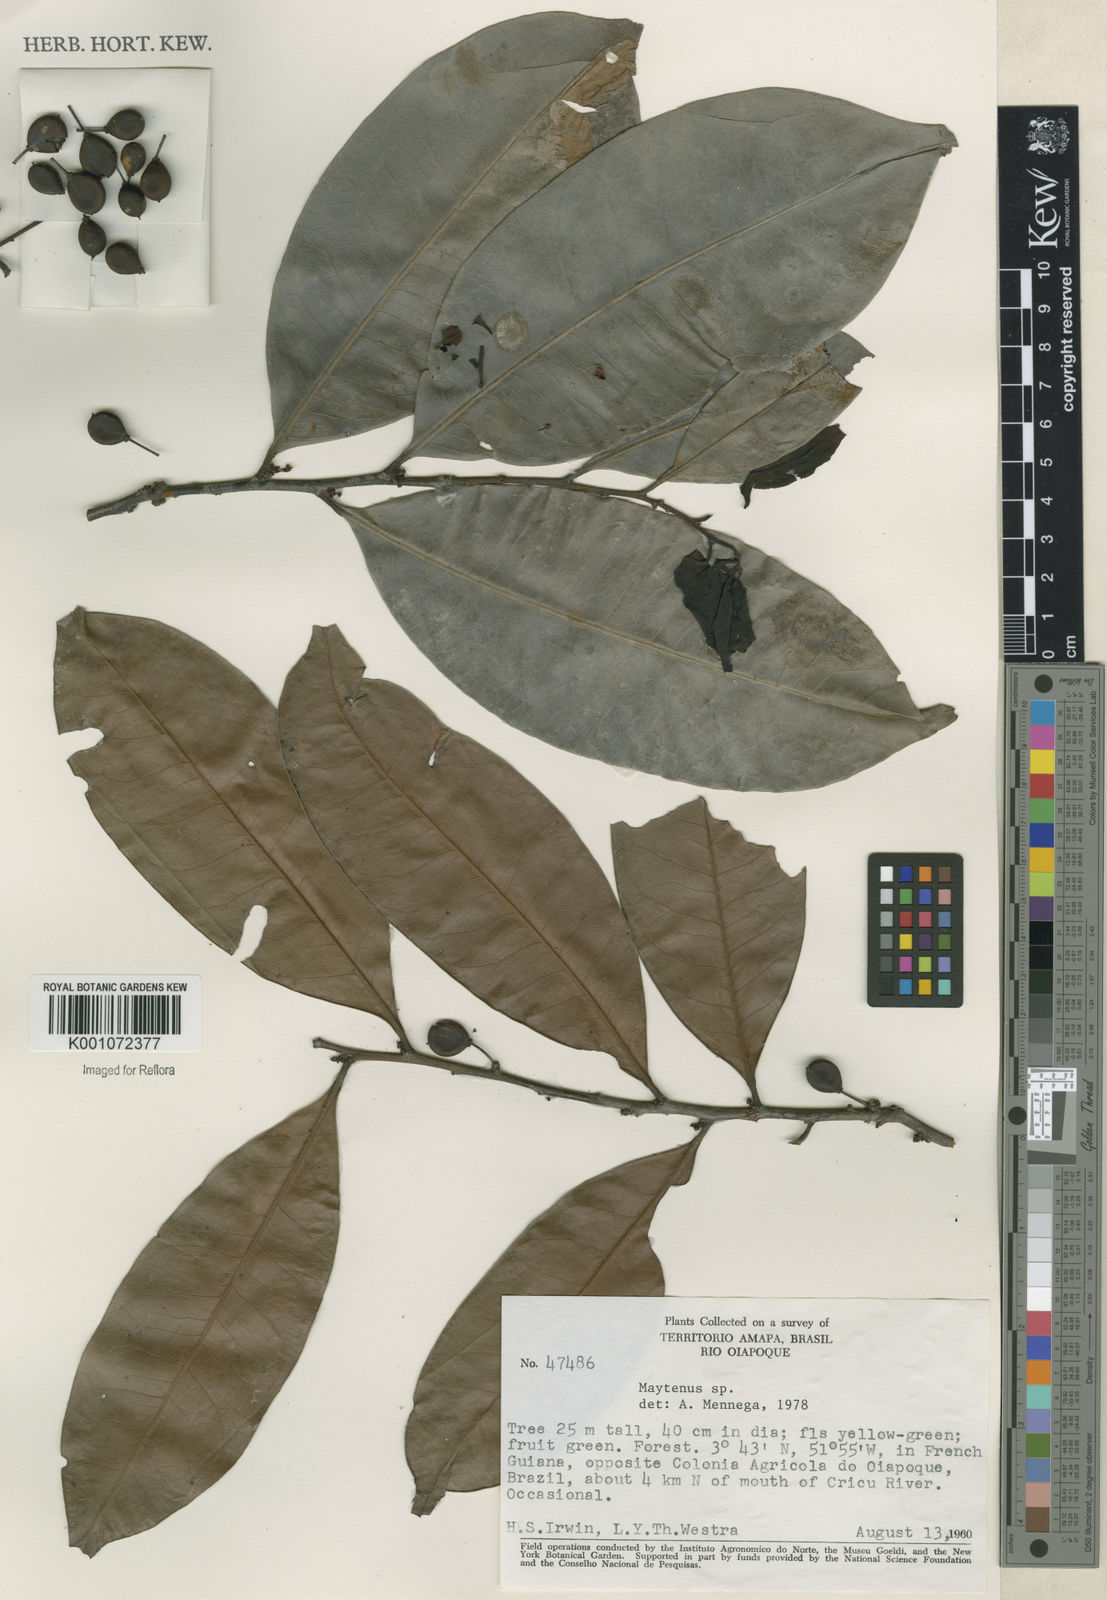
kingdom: Plantae
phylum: Tracheophyta
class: Magnoliopsida
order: Celastrales
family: Celastraceae
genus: Maytenus
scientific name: Maytenus
